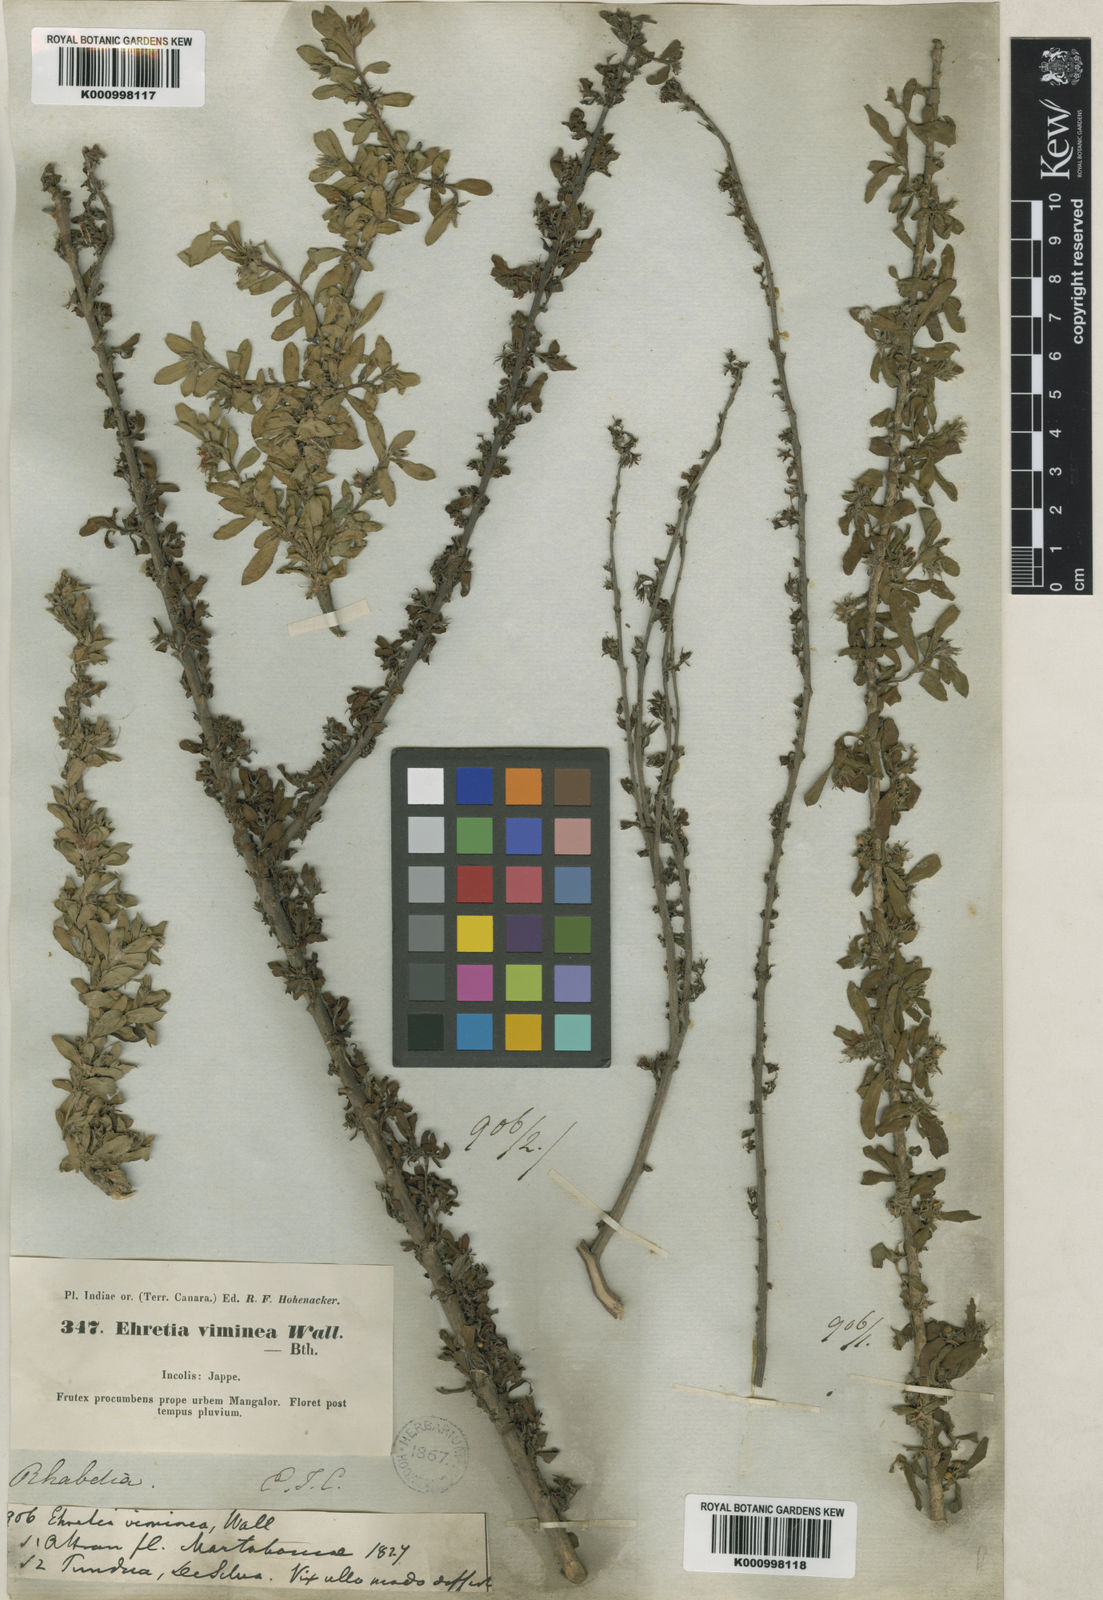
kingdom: Plantae
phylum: Tracheophyta
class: Magnoliopsida
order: Boraginales
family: Ehretiaceae
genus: Ehretia
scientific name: Ehretia
